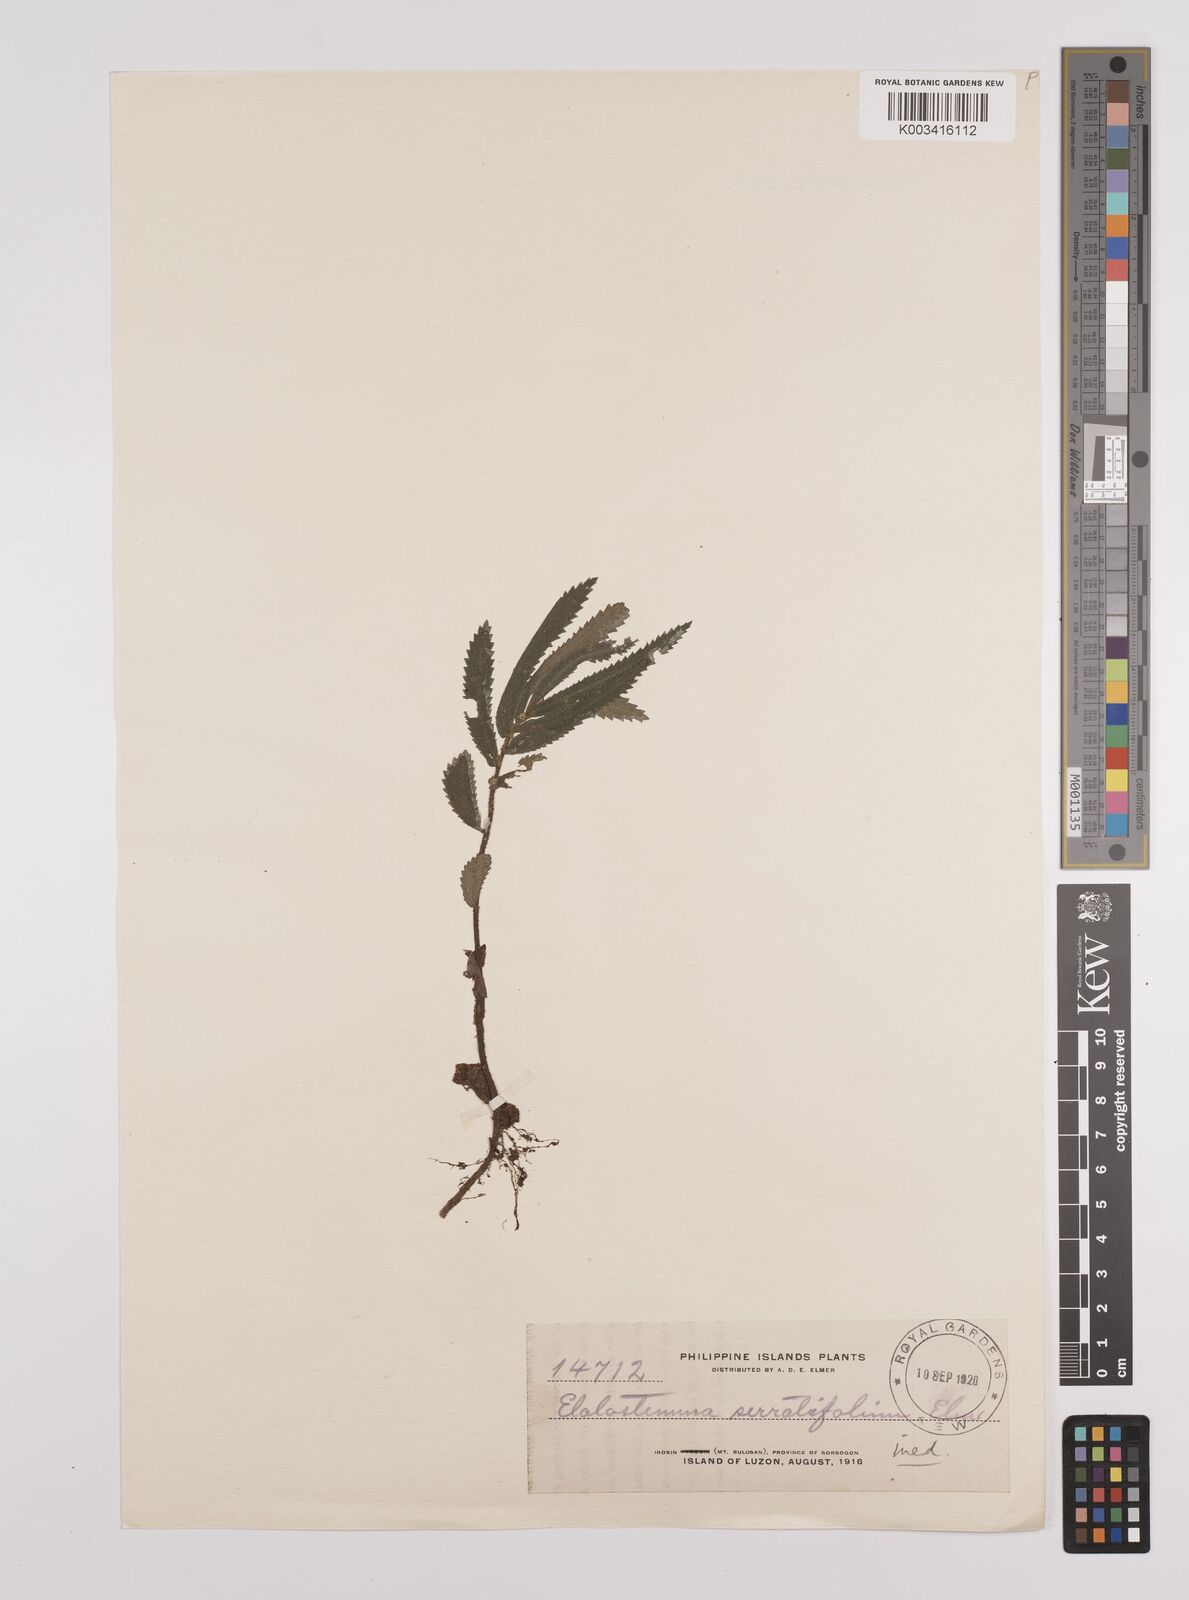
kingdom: Plantae
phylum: Tracheophyta
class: Magnoliopsida
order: Rosales
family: Urticaceae
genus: Elatostema
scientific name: Elatostema serratifolium
